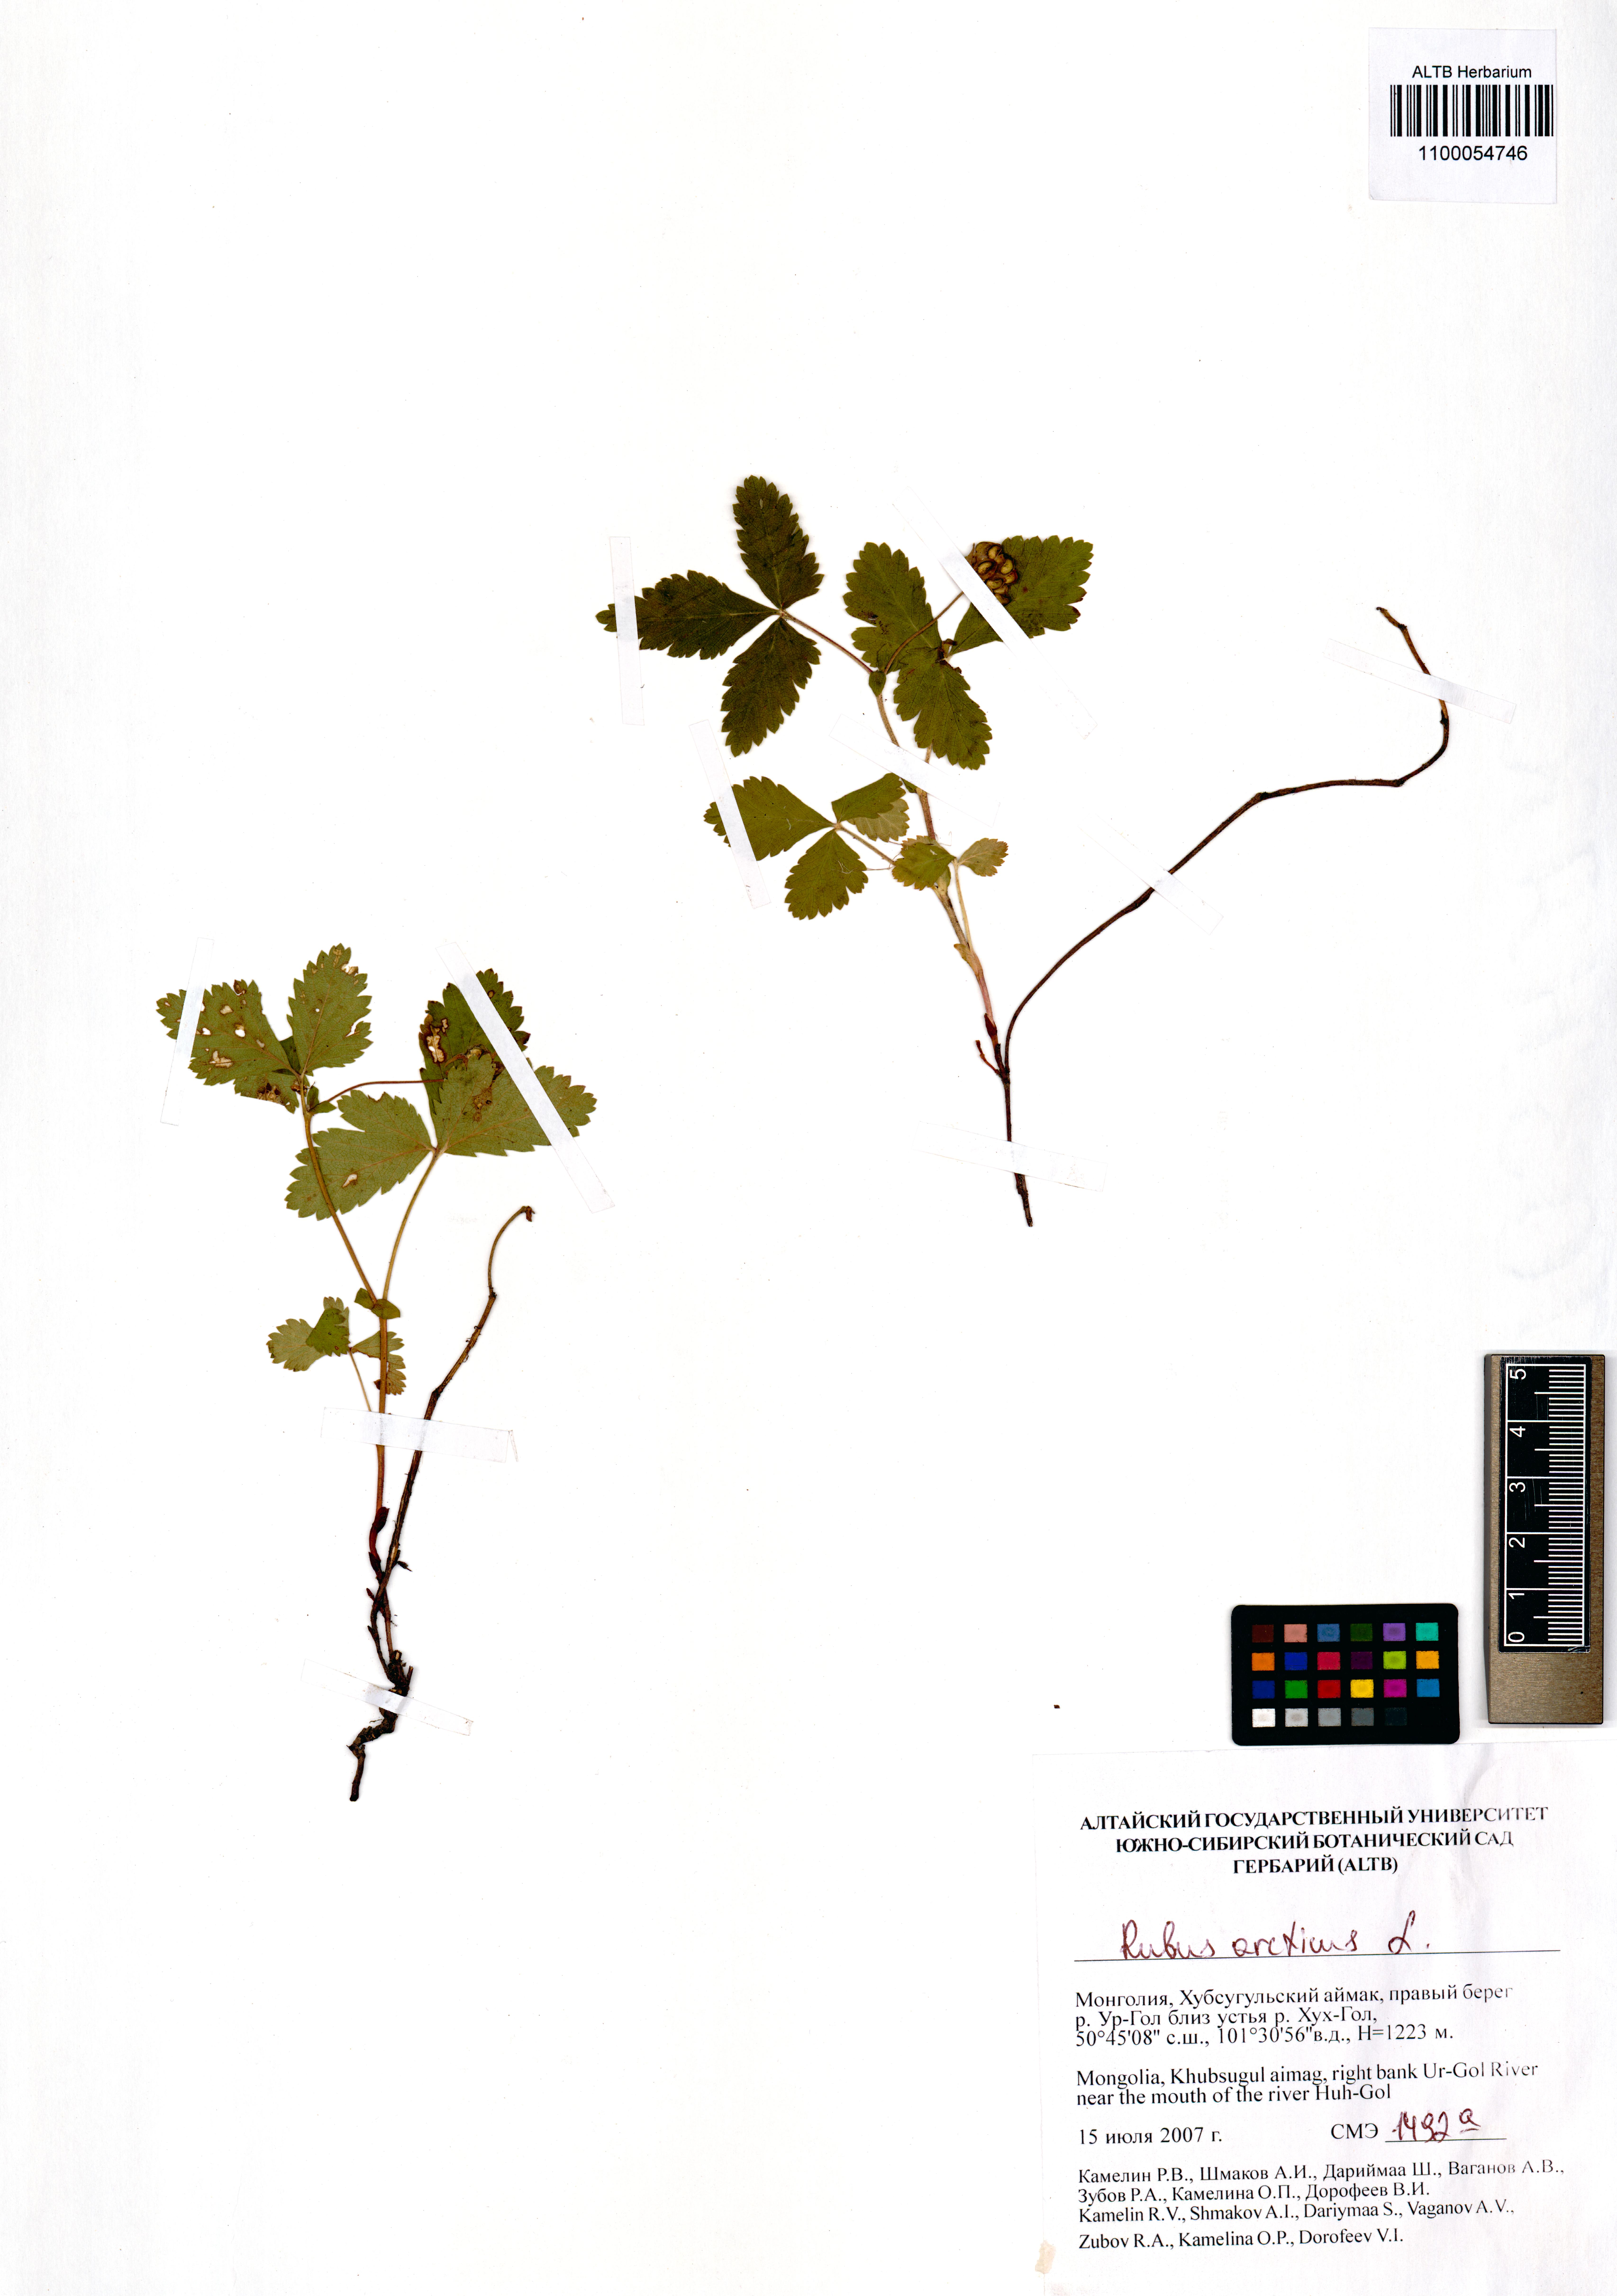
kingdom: Plantae
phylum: Tracheophyta
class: Magnoliopsida
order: Rosales
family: Rosaceae
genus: Rubus
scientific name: Rubus arcticus
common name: Arctic bramble
